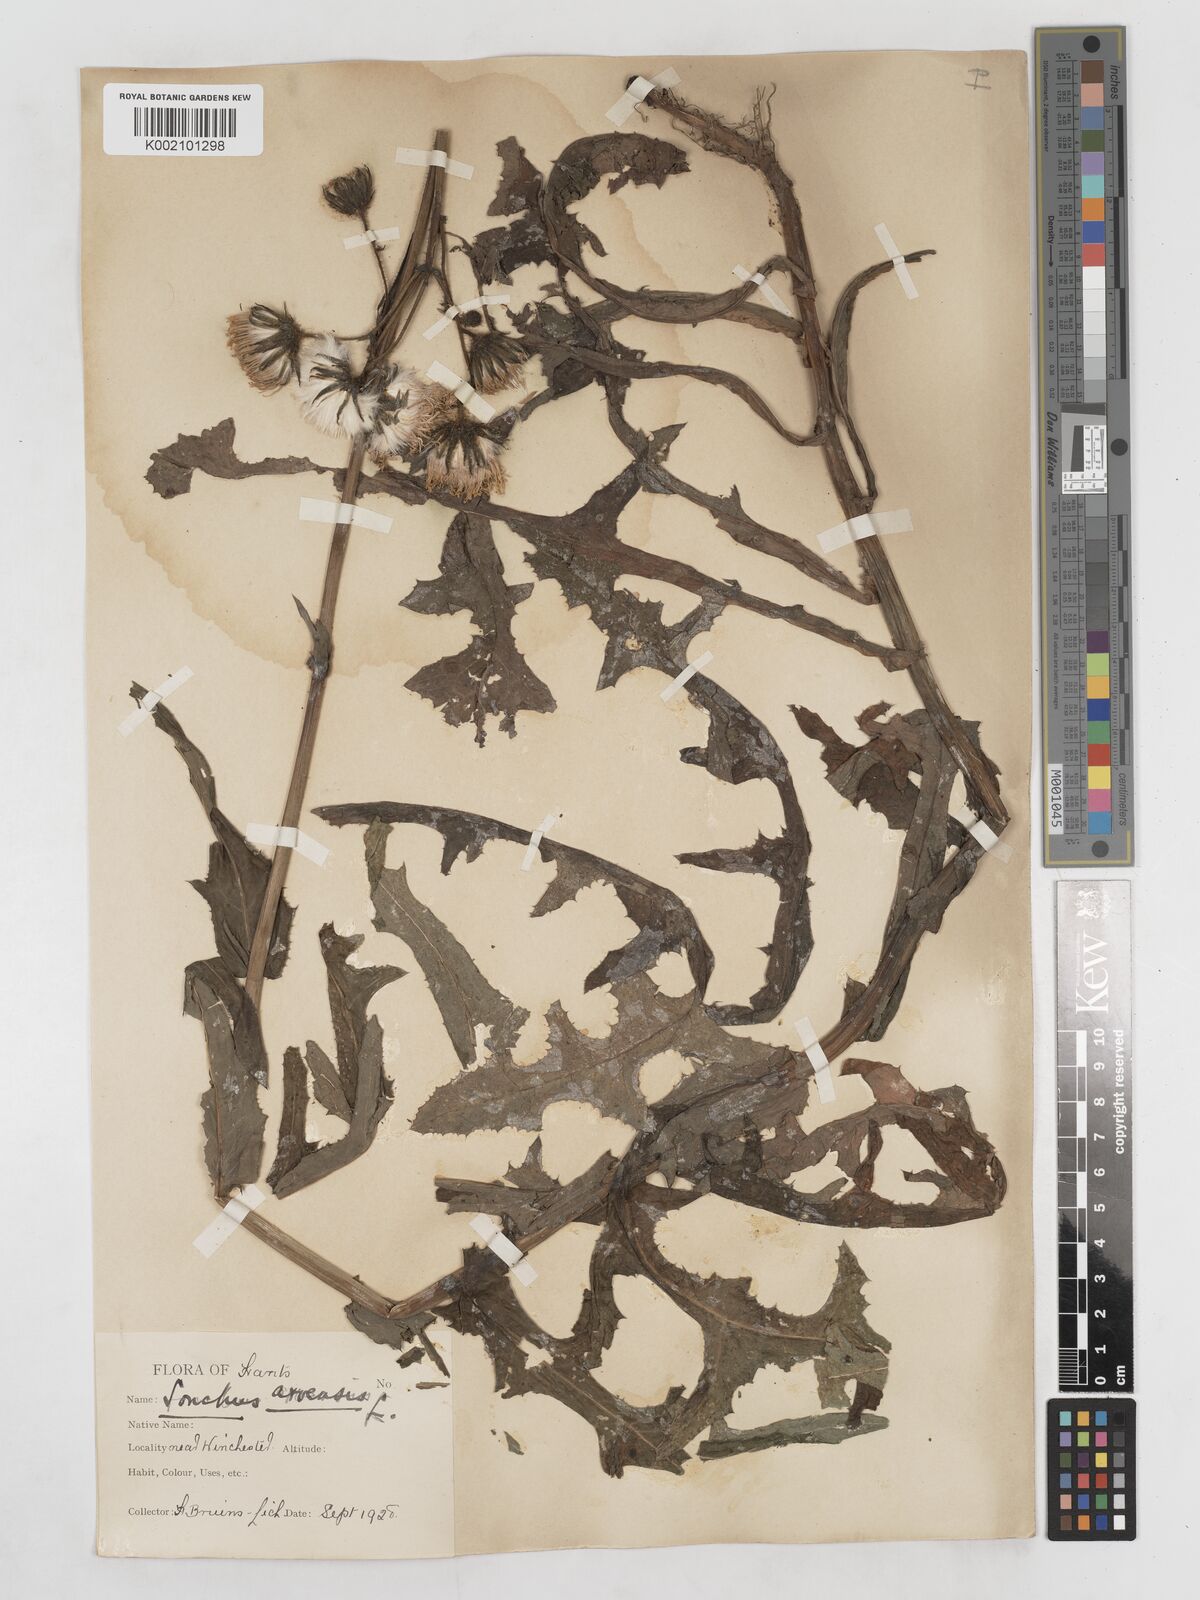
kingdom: Plantae
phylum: Tracheophyta
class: Magnoliopsida
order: Asterales
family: Asteraceae
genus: Sonchus
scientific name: Sonchus arvensis
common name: Perennial sow-thistle
